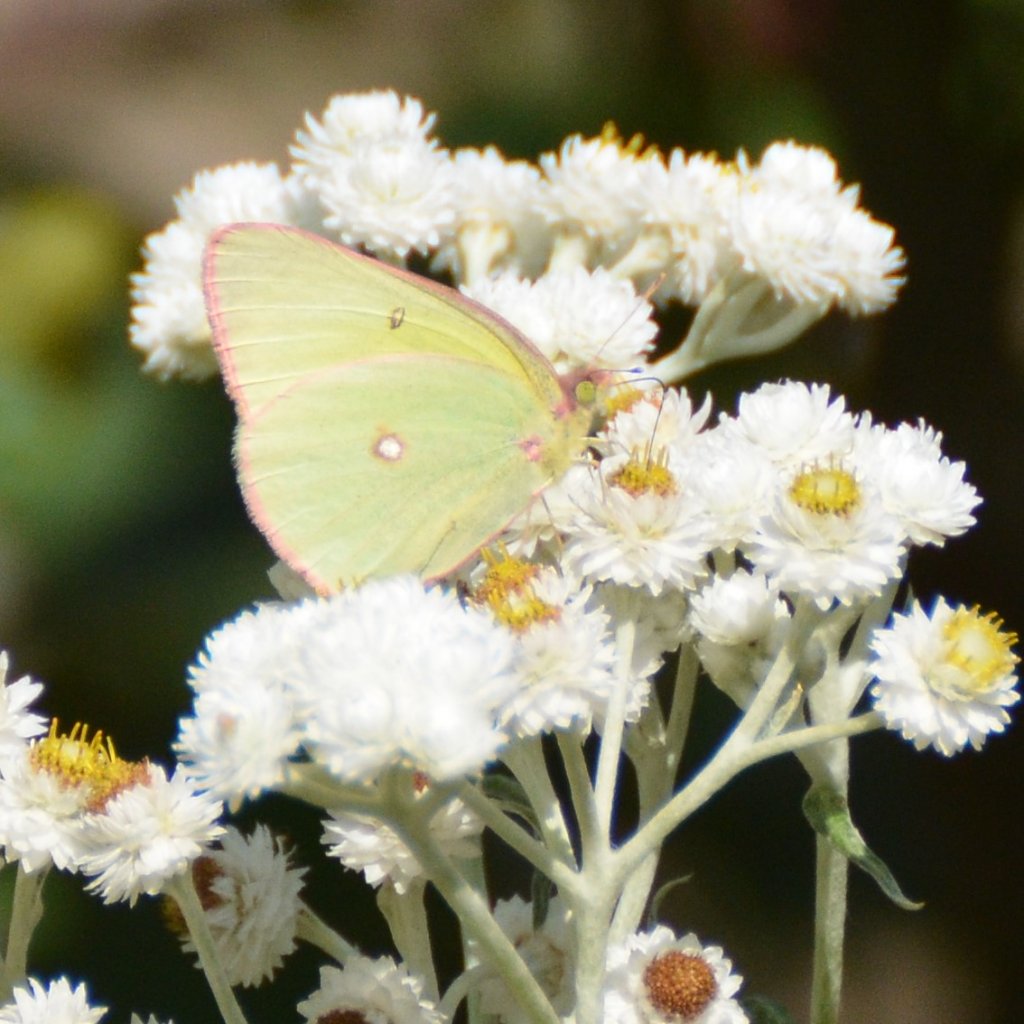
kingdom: Animalia
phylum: Arthropoda
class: Insecta
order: Lepidoptera
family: Pieridae
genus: Colias
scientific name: Colias interior
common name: Pink-edged Sulphur
